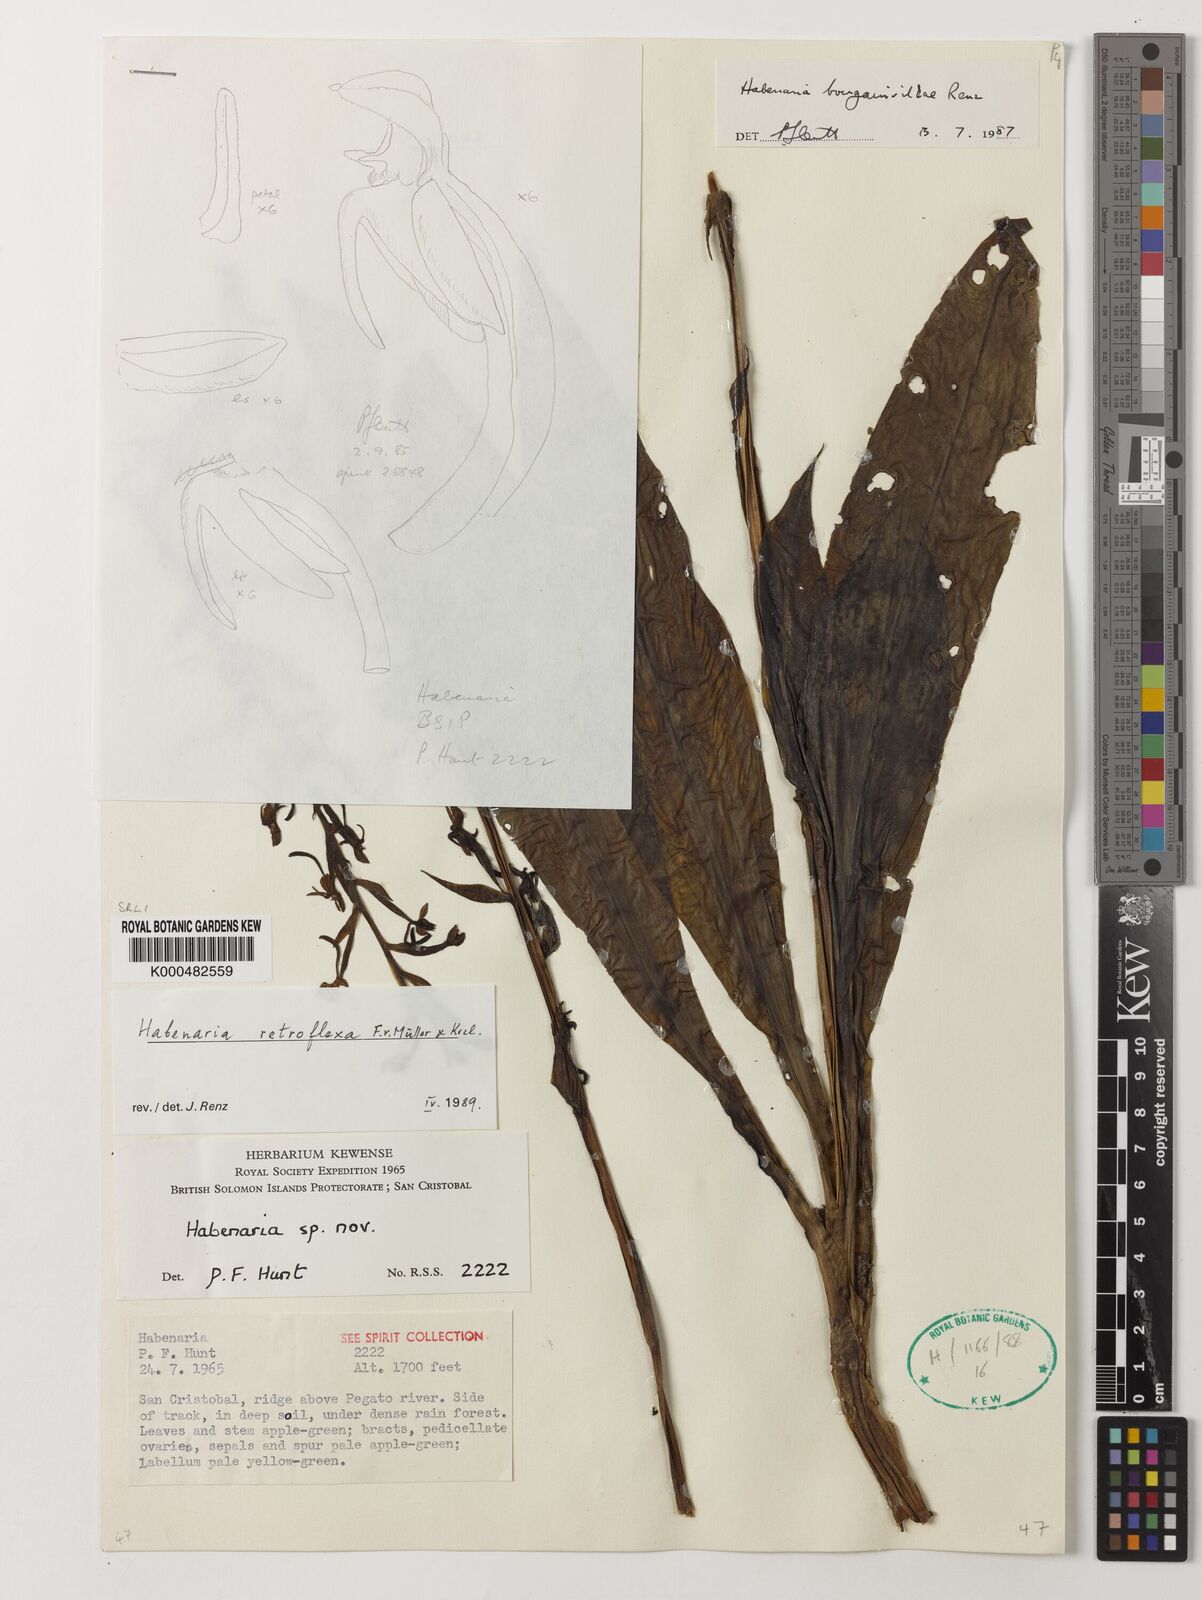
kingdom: Plantae
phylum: Tracheophyta
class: Liliopsida
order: Asparagales
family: Orchidaceae
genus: Habenaria
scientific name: Habenaria retroflexa
